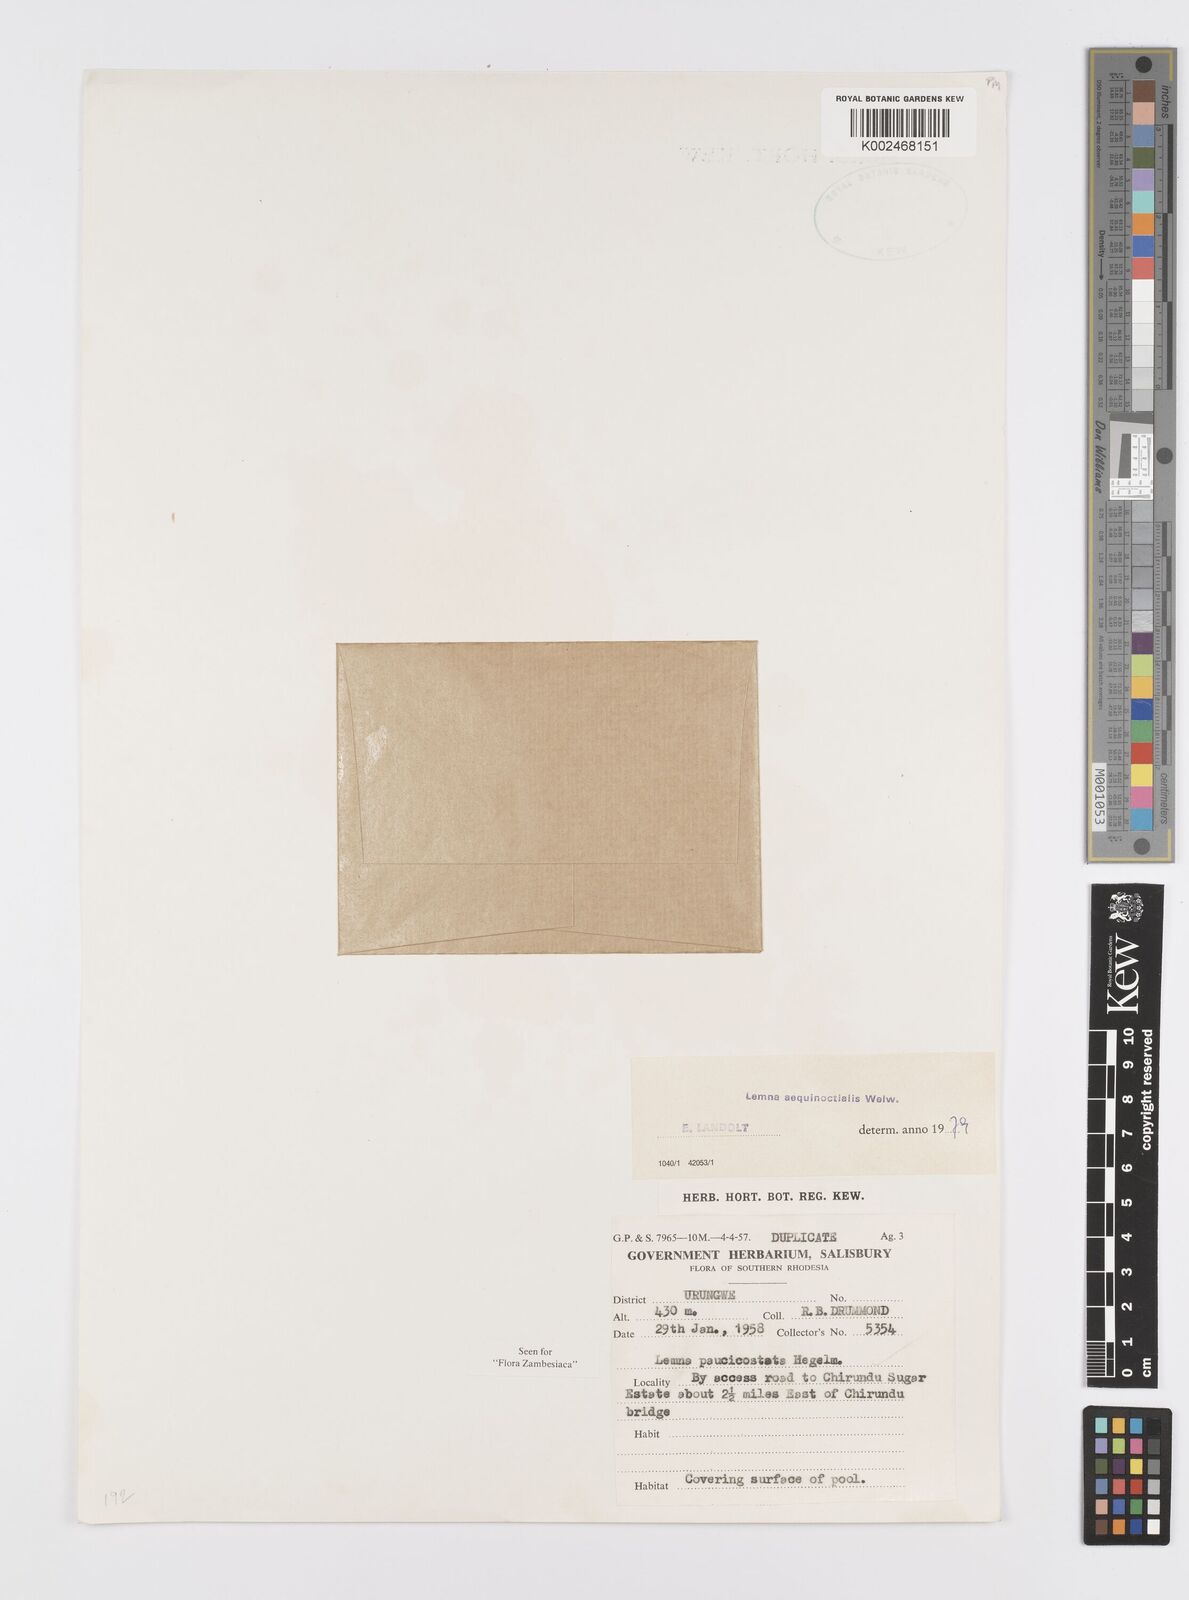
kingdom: Plantae
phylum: Tracheophyta
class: Liliopsida
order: Alismatales
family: Araceae
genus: Lemna
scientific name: Lemna aequinoctialis
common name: Duckweed
